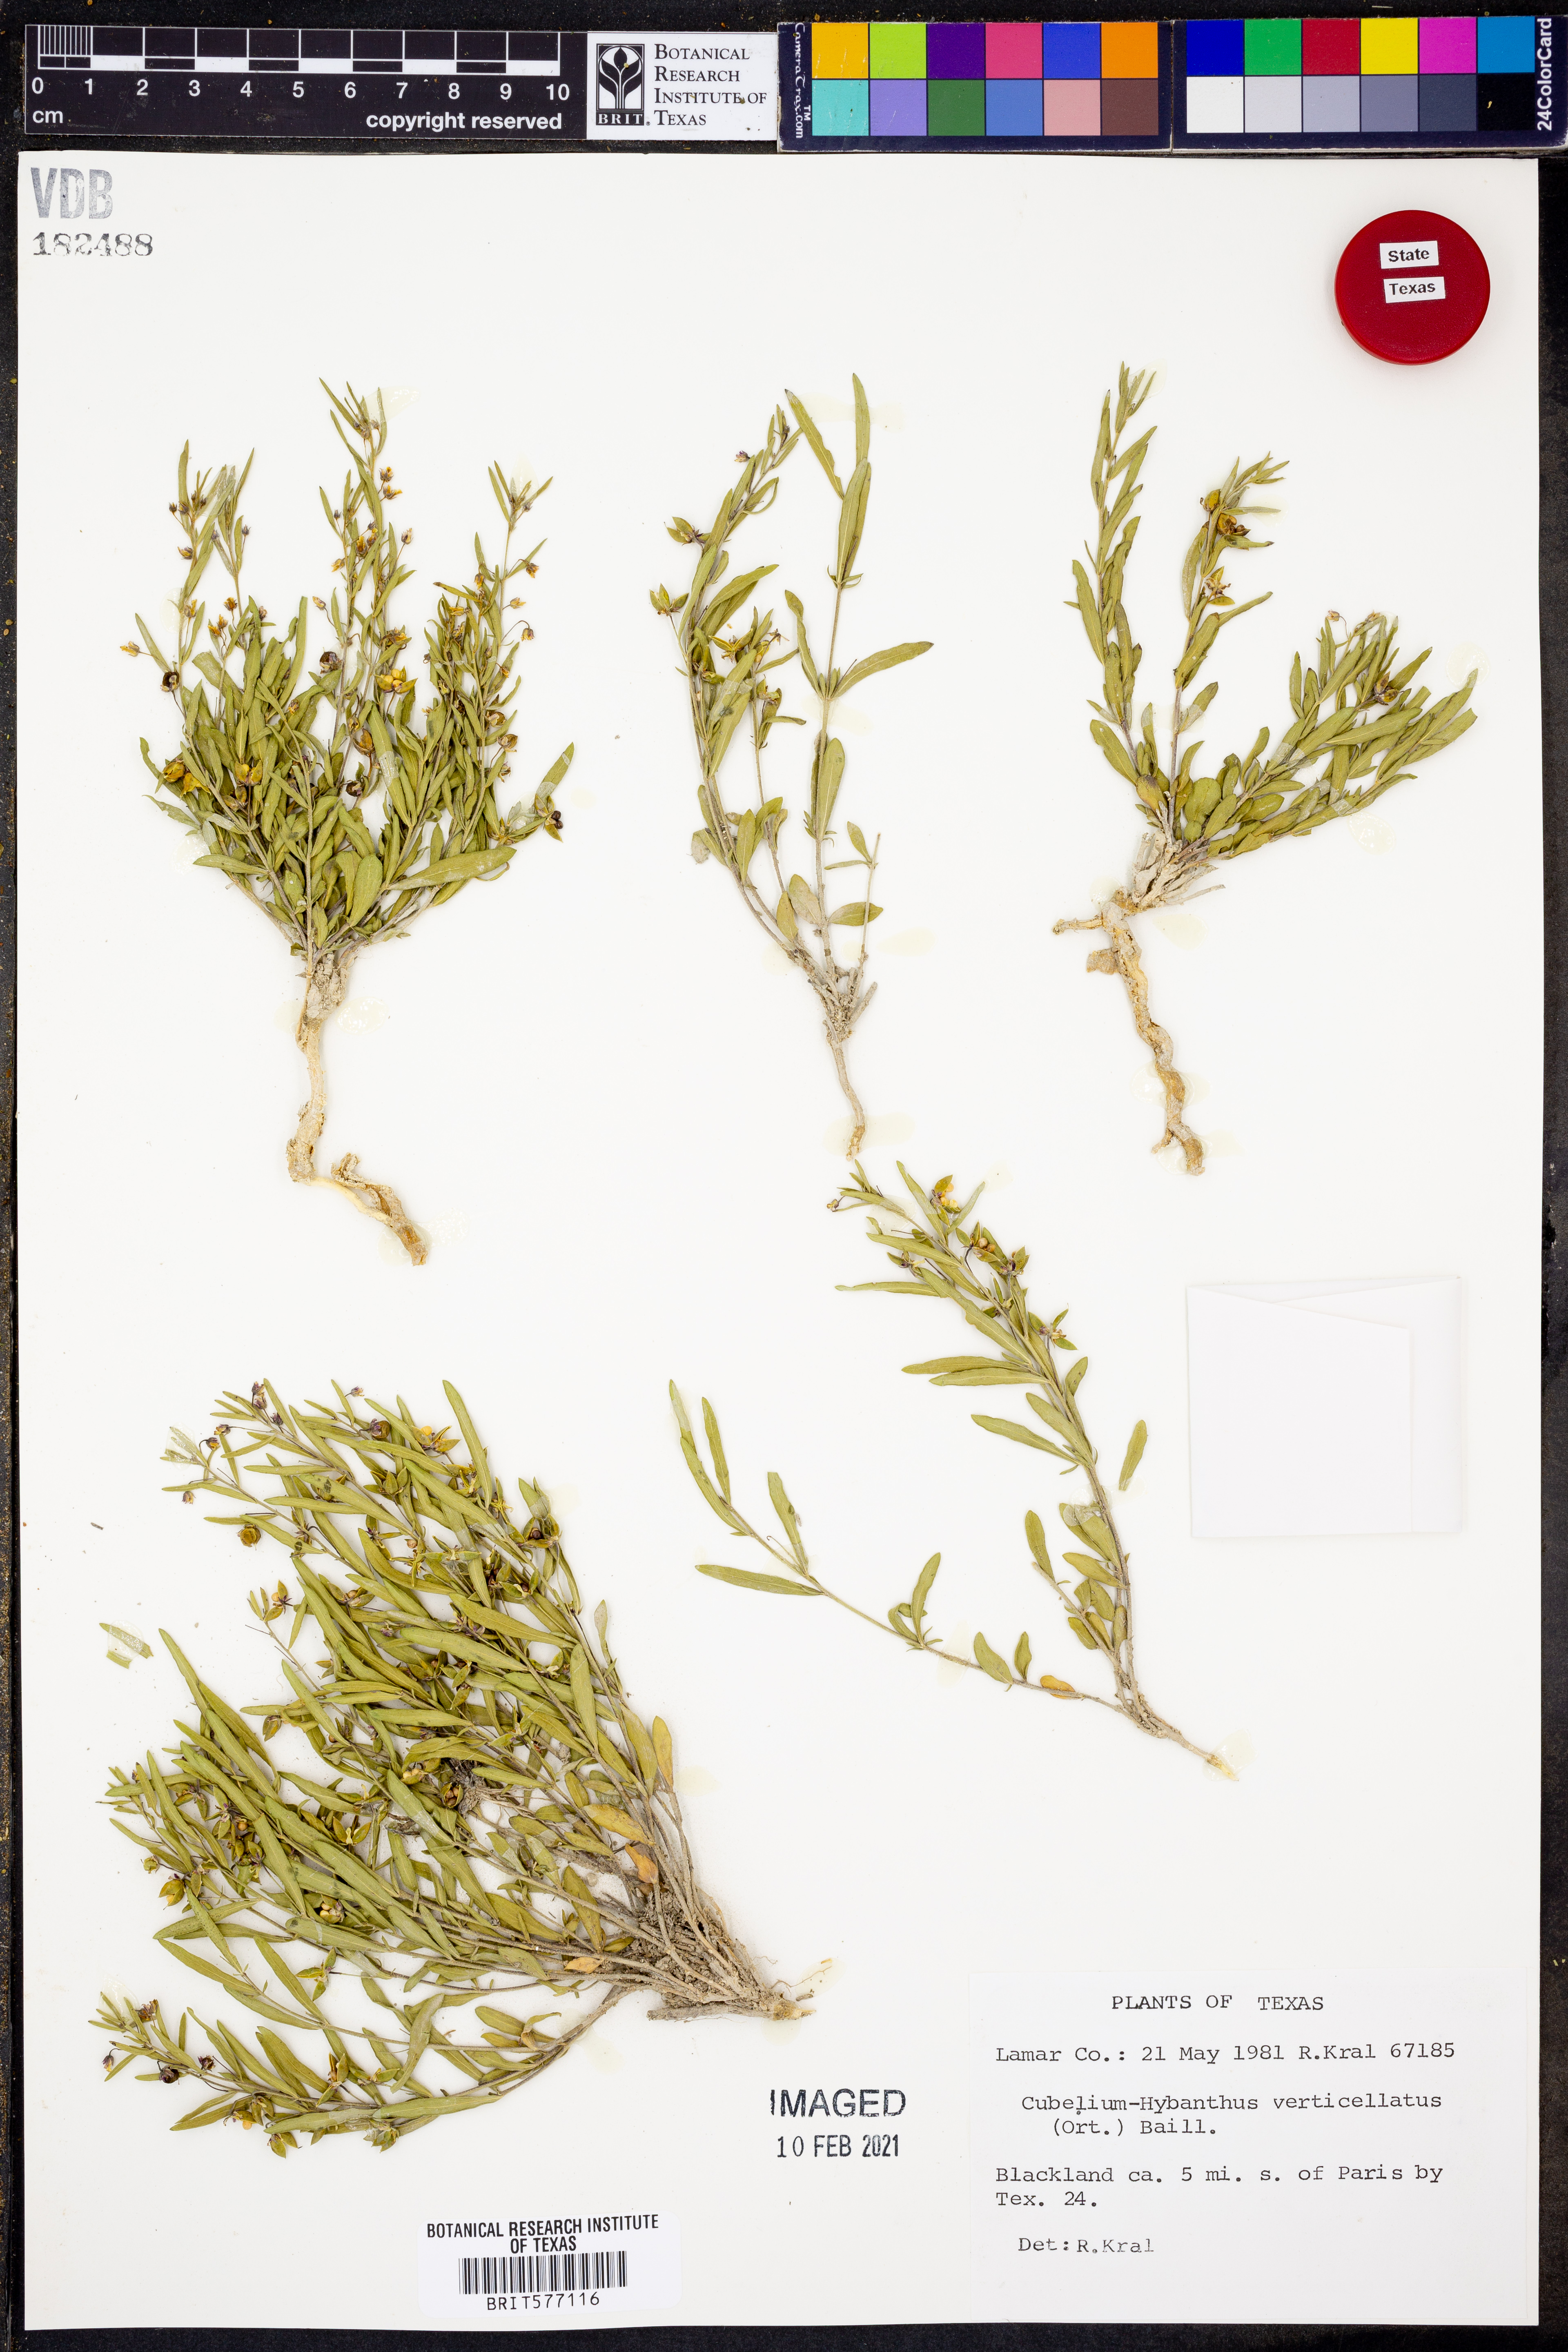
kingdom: Plantae
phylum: Tracheophyta
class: Magnoliopsida
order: Malpighiales
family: Violaceae
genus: Pombalia
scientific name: Pombalia verticillata
